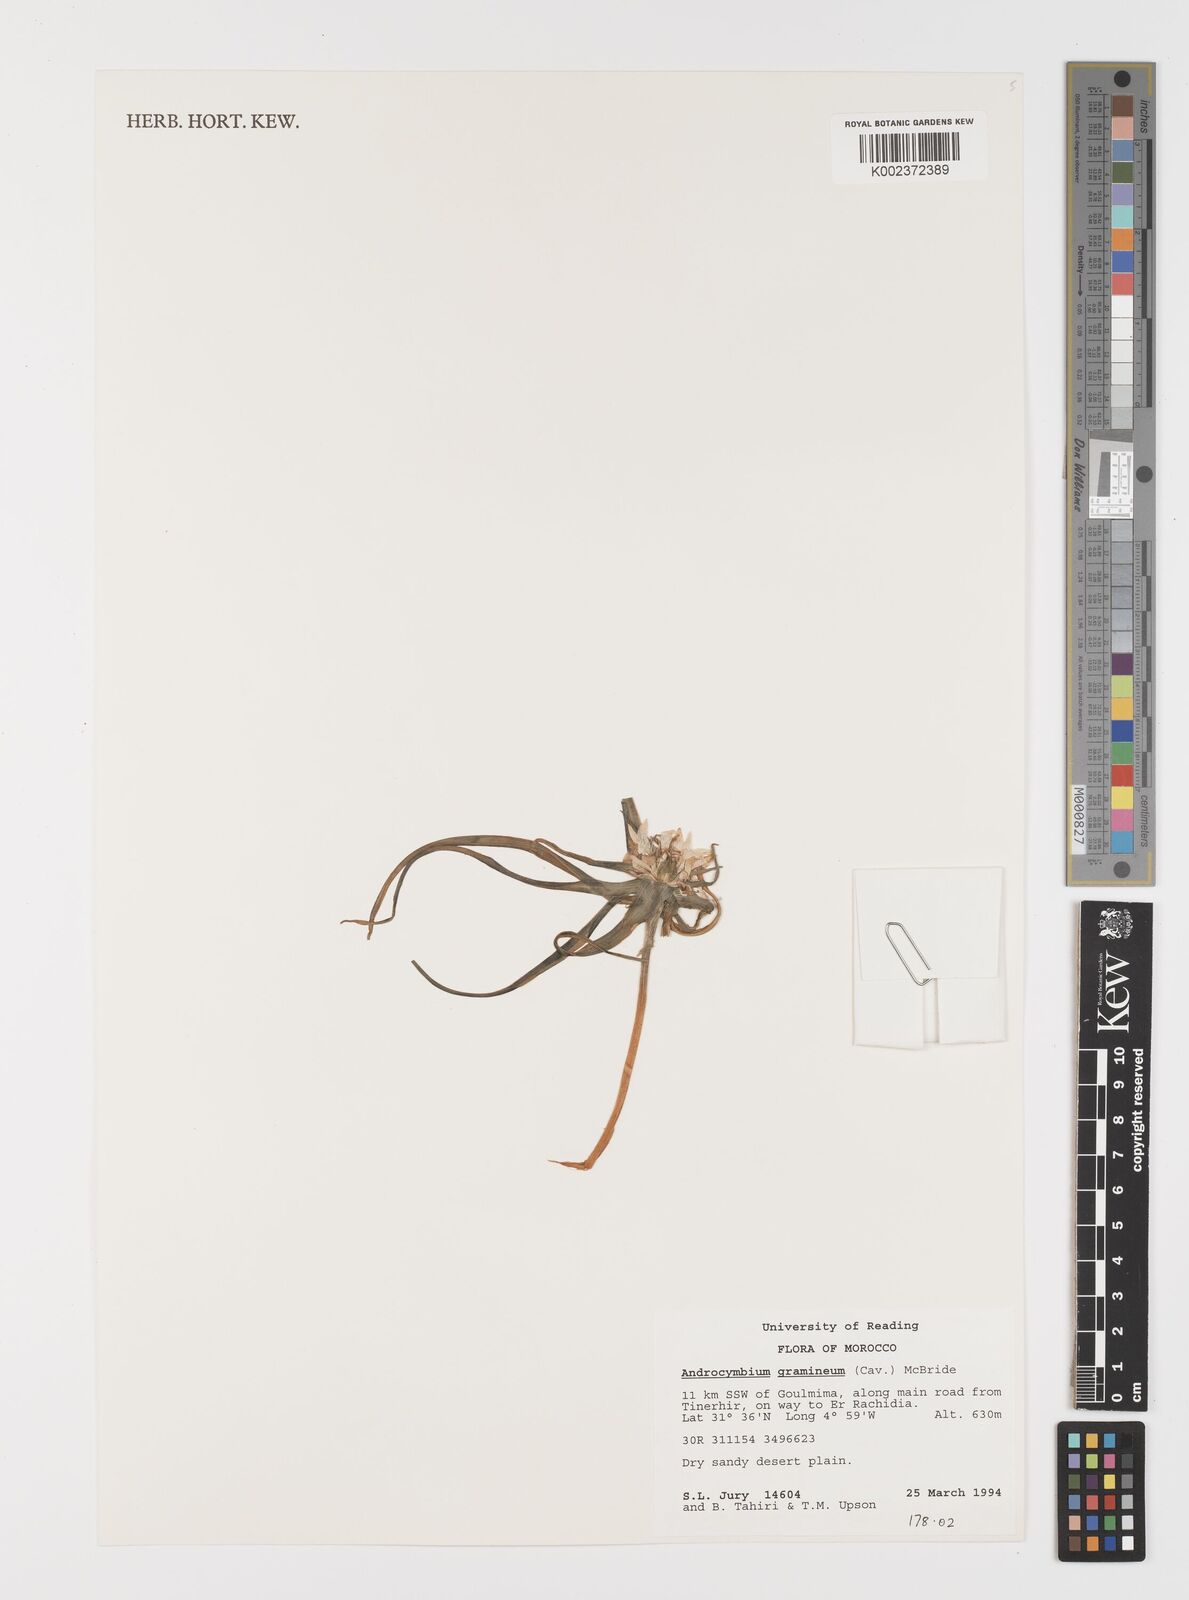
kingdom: Plantae
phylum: Tracheophyta
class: Liliopsida
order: Liliales
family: Colchicaceae
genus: Colchicum
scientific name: Colchicum gramineum
